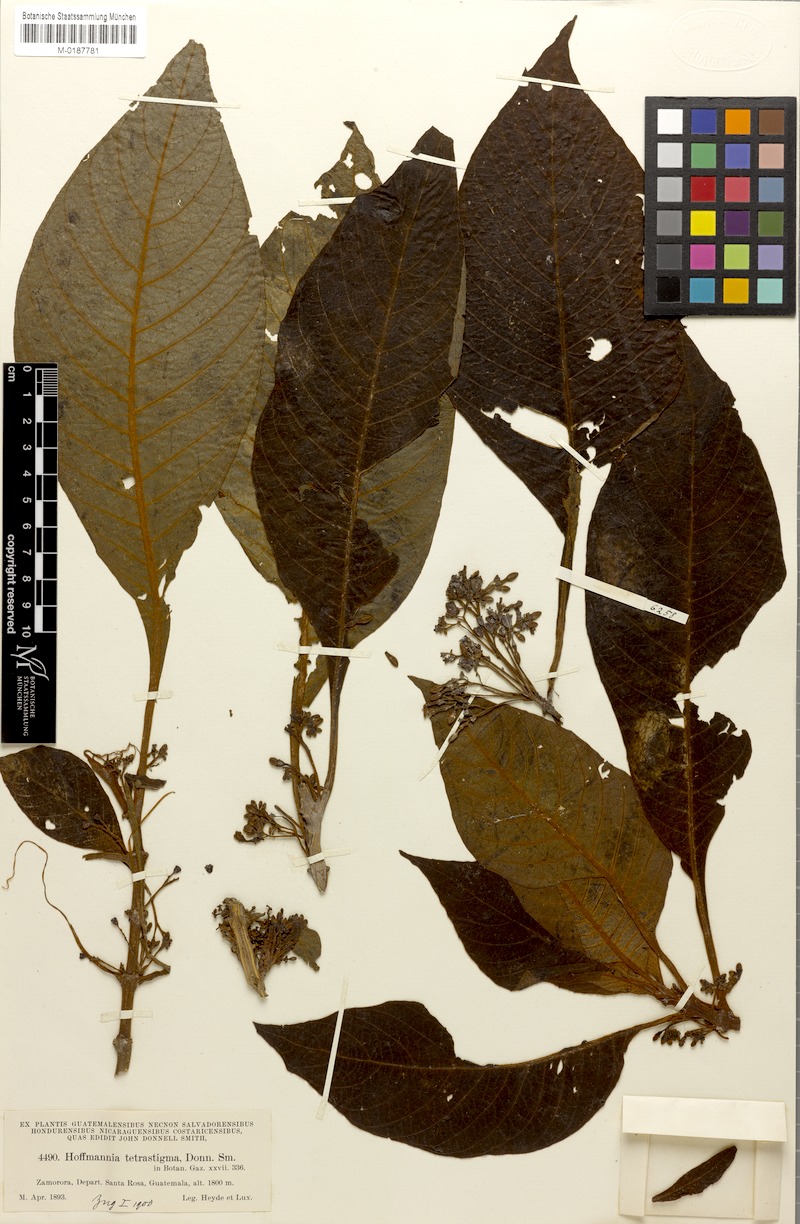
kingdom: Plantae
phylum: Tracheophyta
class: Magnoliopsida
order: Gentianales
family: Rubiaceae
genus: Hoffmannia
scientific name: Hoffmannia tetrastigma
